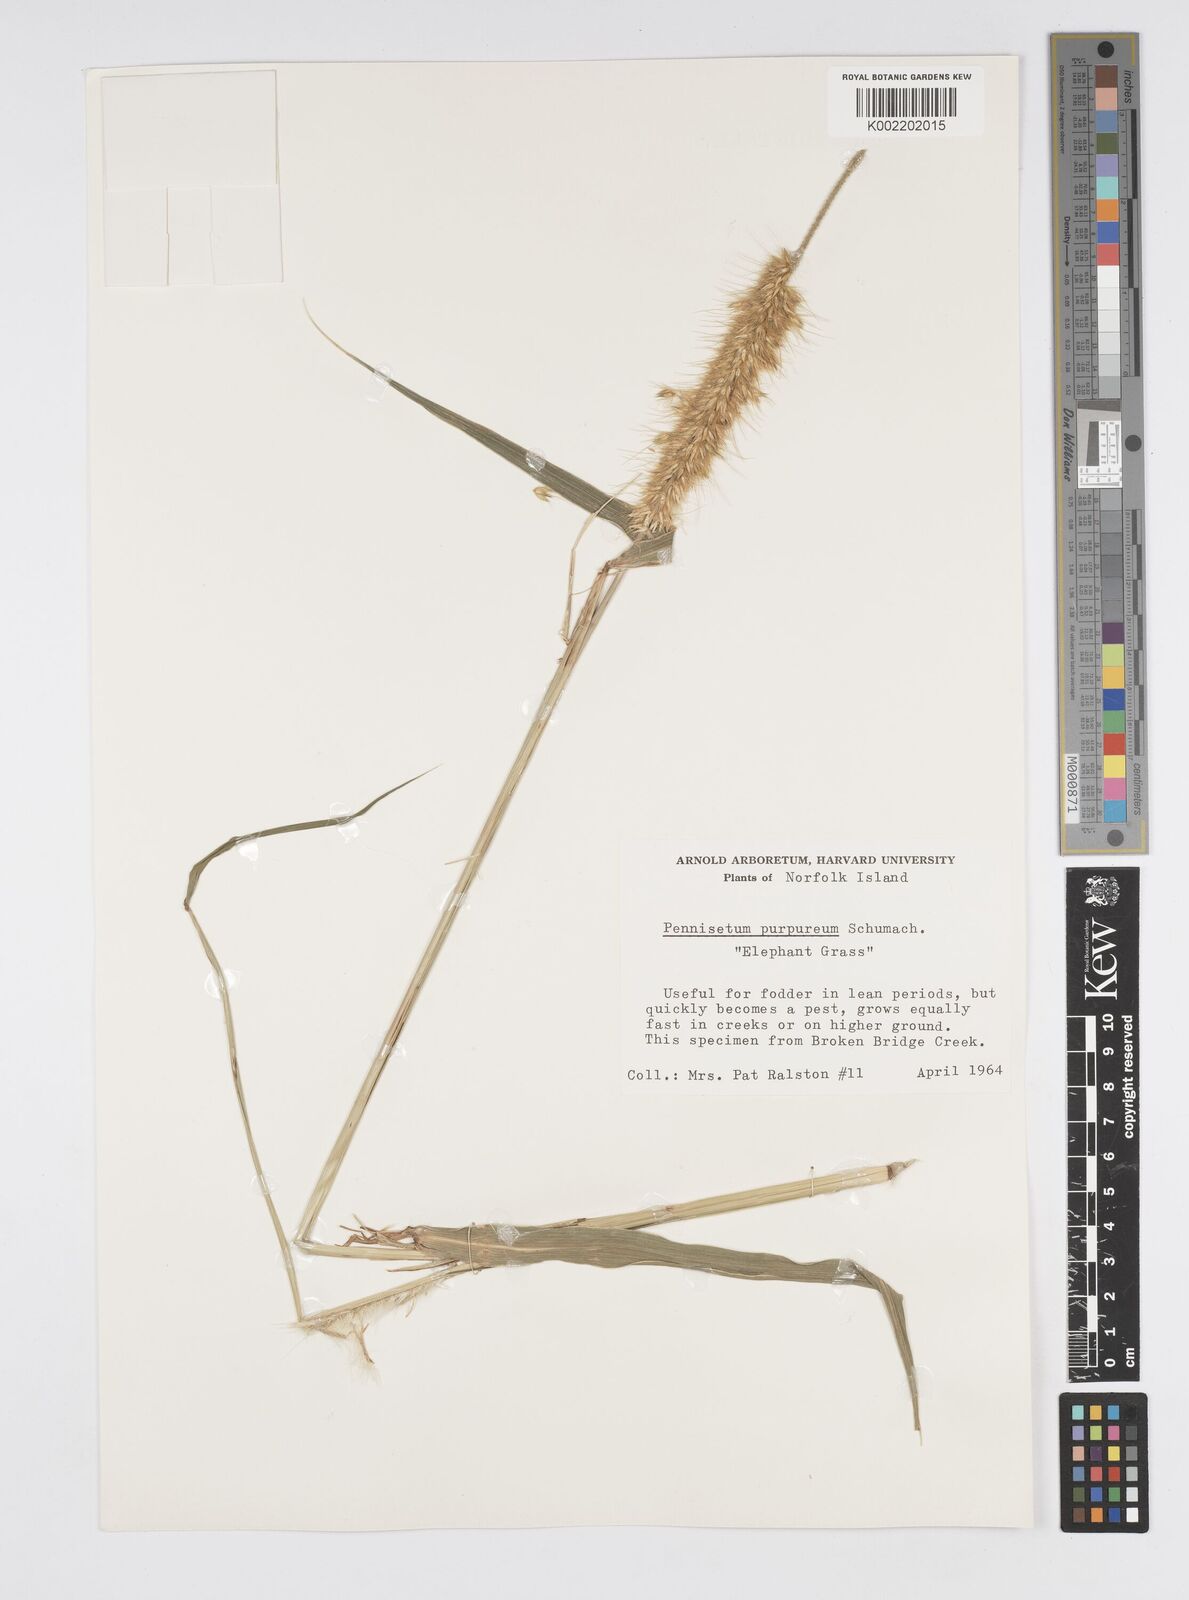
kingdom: Plantae
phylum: Tracheophyta
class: Liliopsida
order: Poales
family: Poaceae
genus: Cenchrus
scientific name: Cenchrus purpureus
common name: Elephant grass
